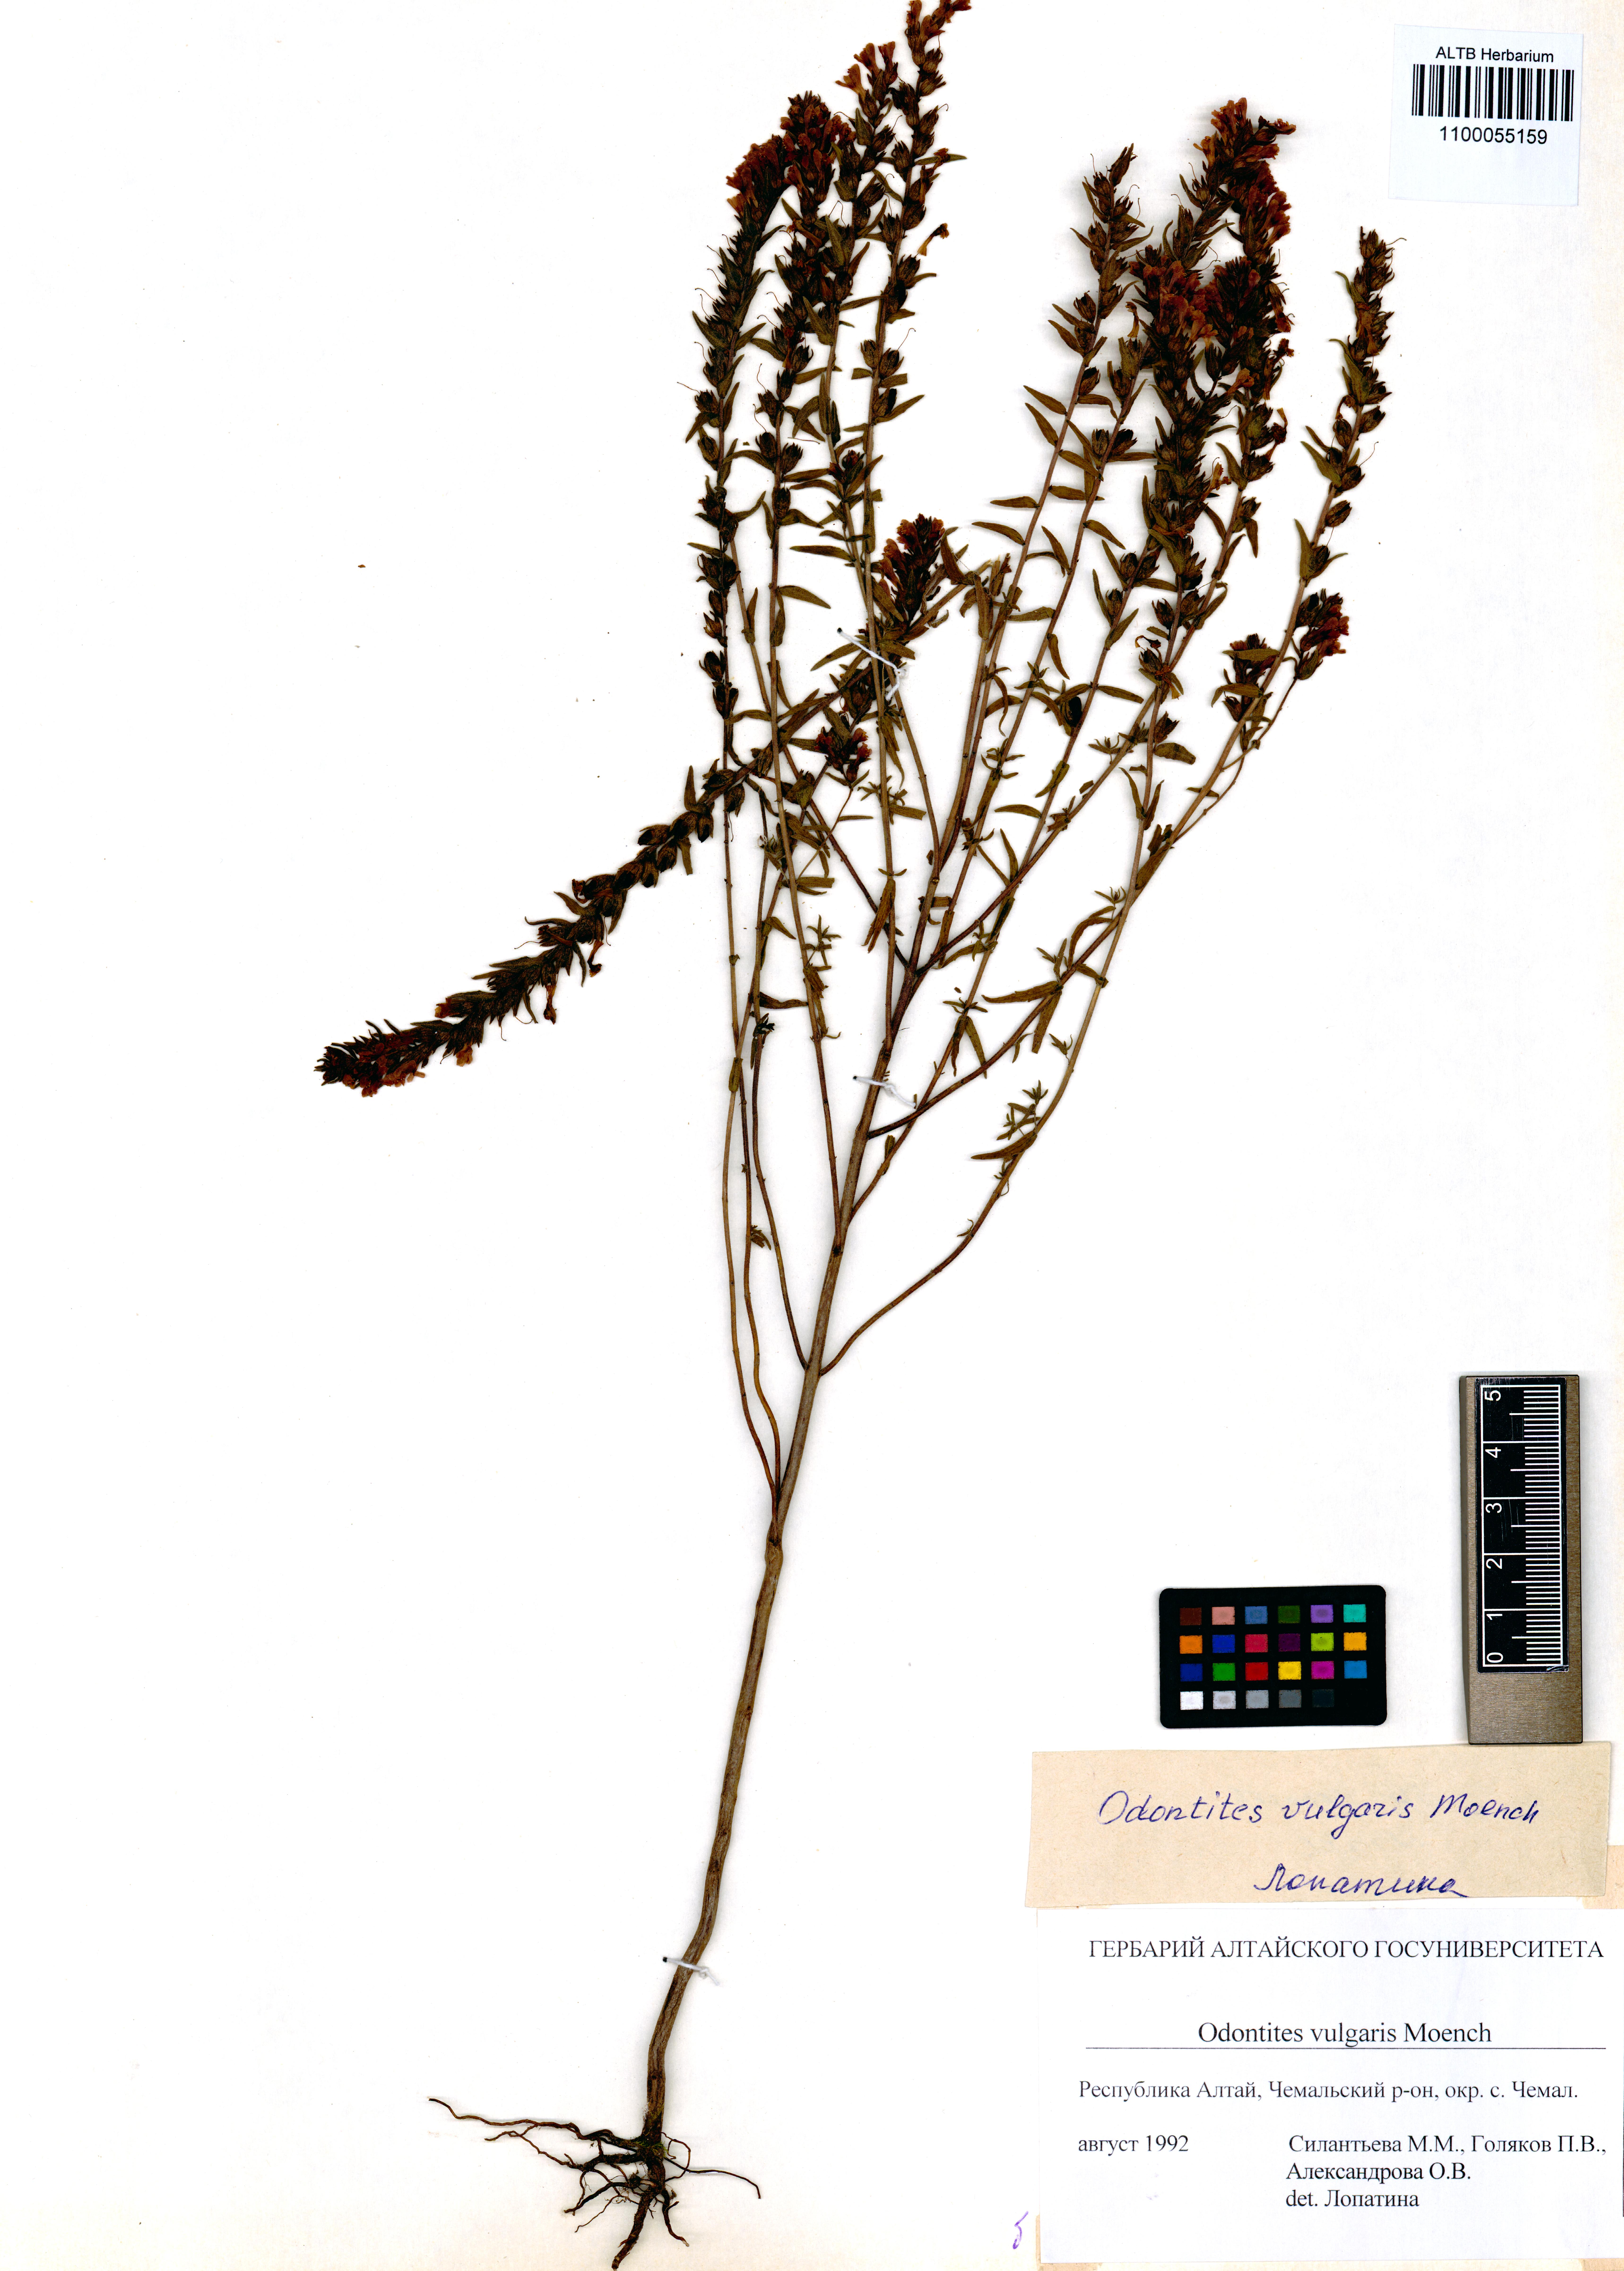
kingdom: Plantae
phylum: Tracheophyta
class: Magnoliopsida
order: Lamiales
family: Orobanchaceae
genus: Odontites
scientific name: Odontites vulgaris
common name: Broomrape
